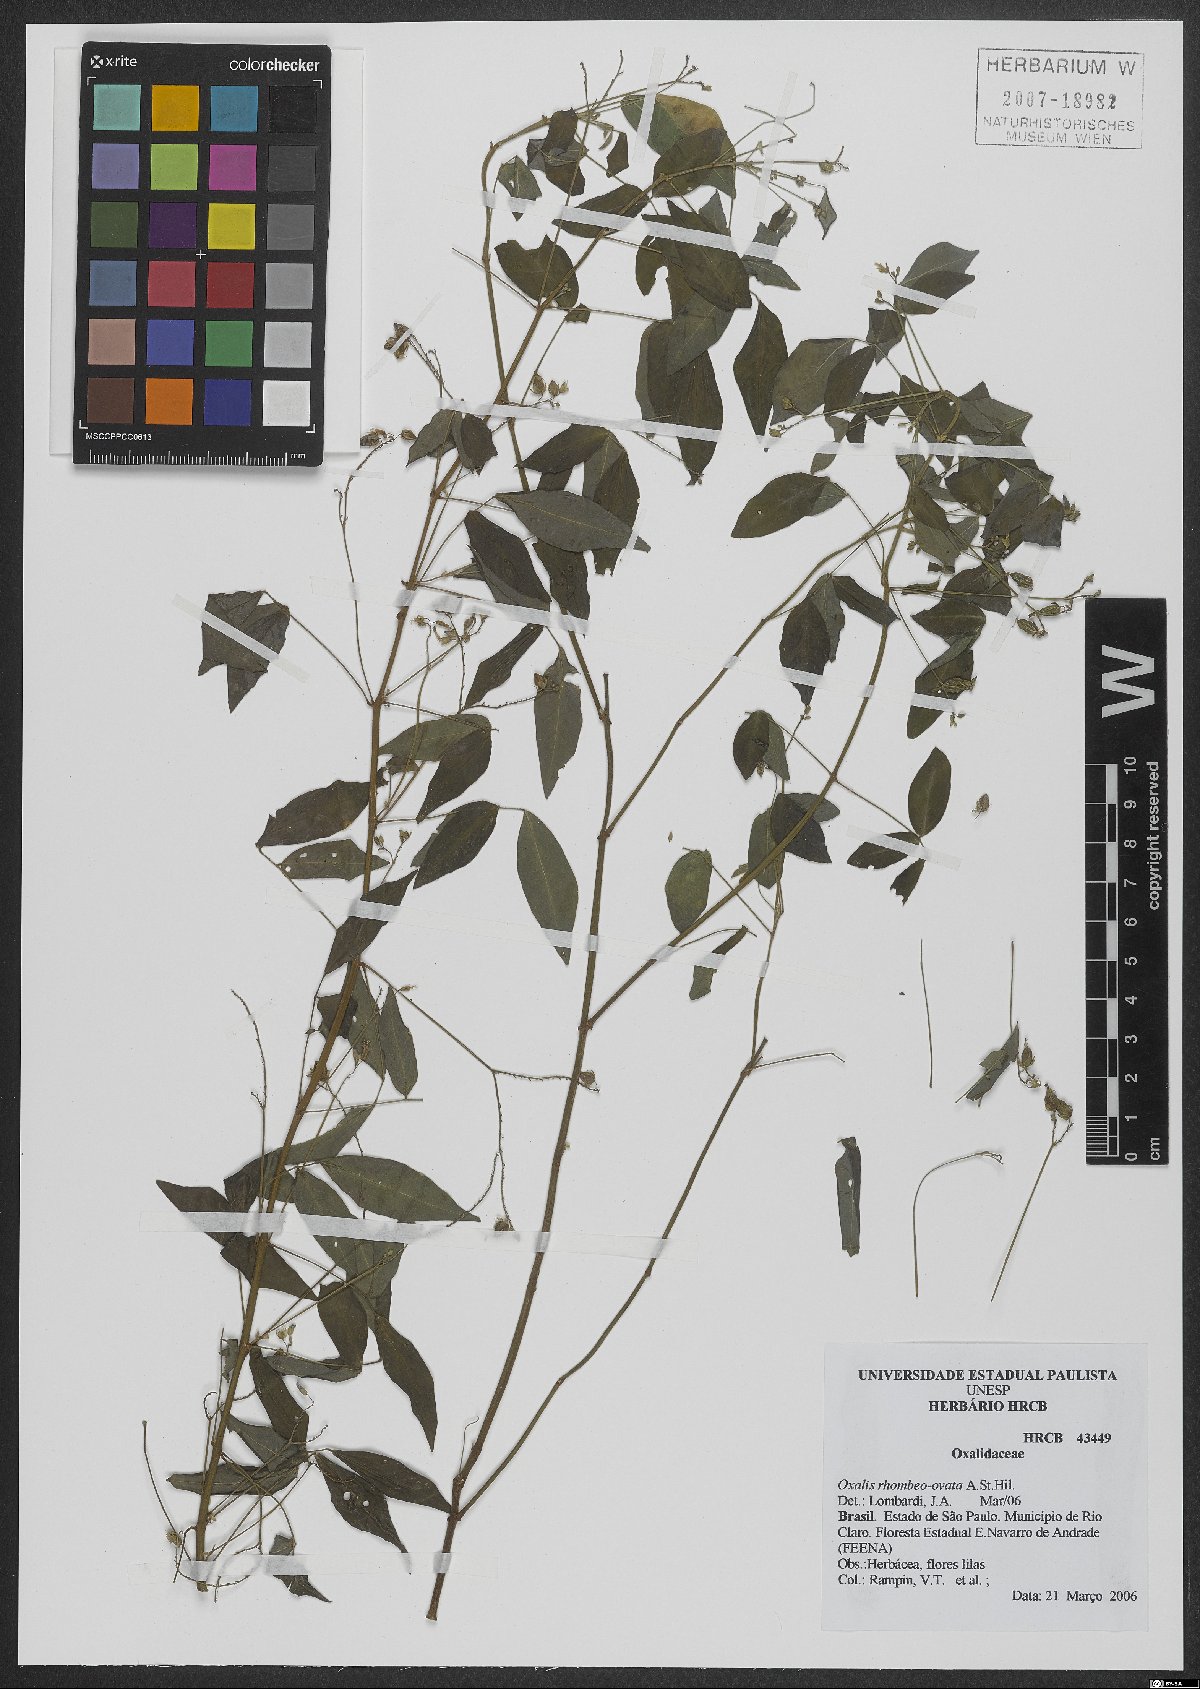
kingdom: Plantae
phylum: Tracheophyta
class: Magnoliopsida
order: Oxalidales
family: Oxalidaceae
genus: Oxalis
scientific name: Oxalis rhombeo-ovata
